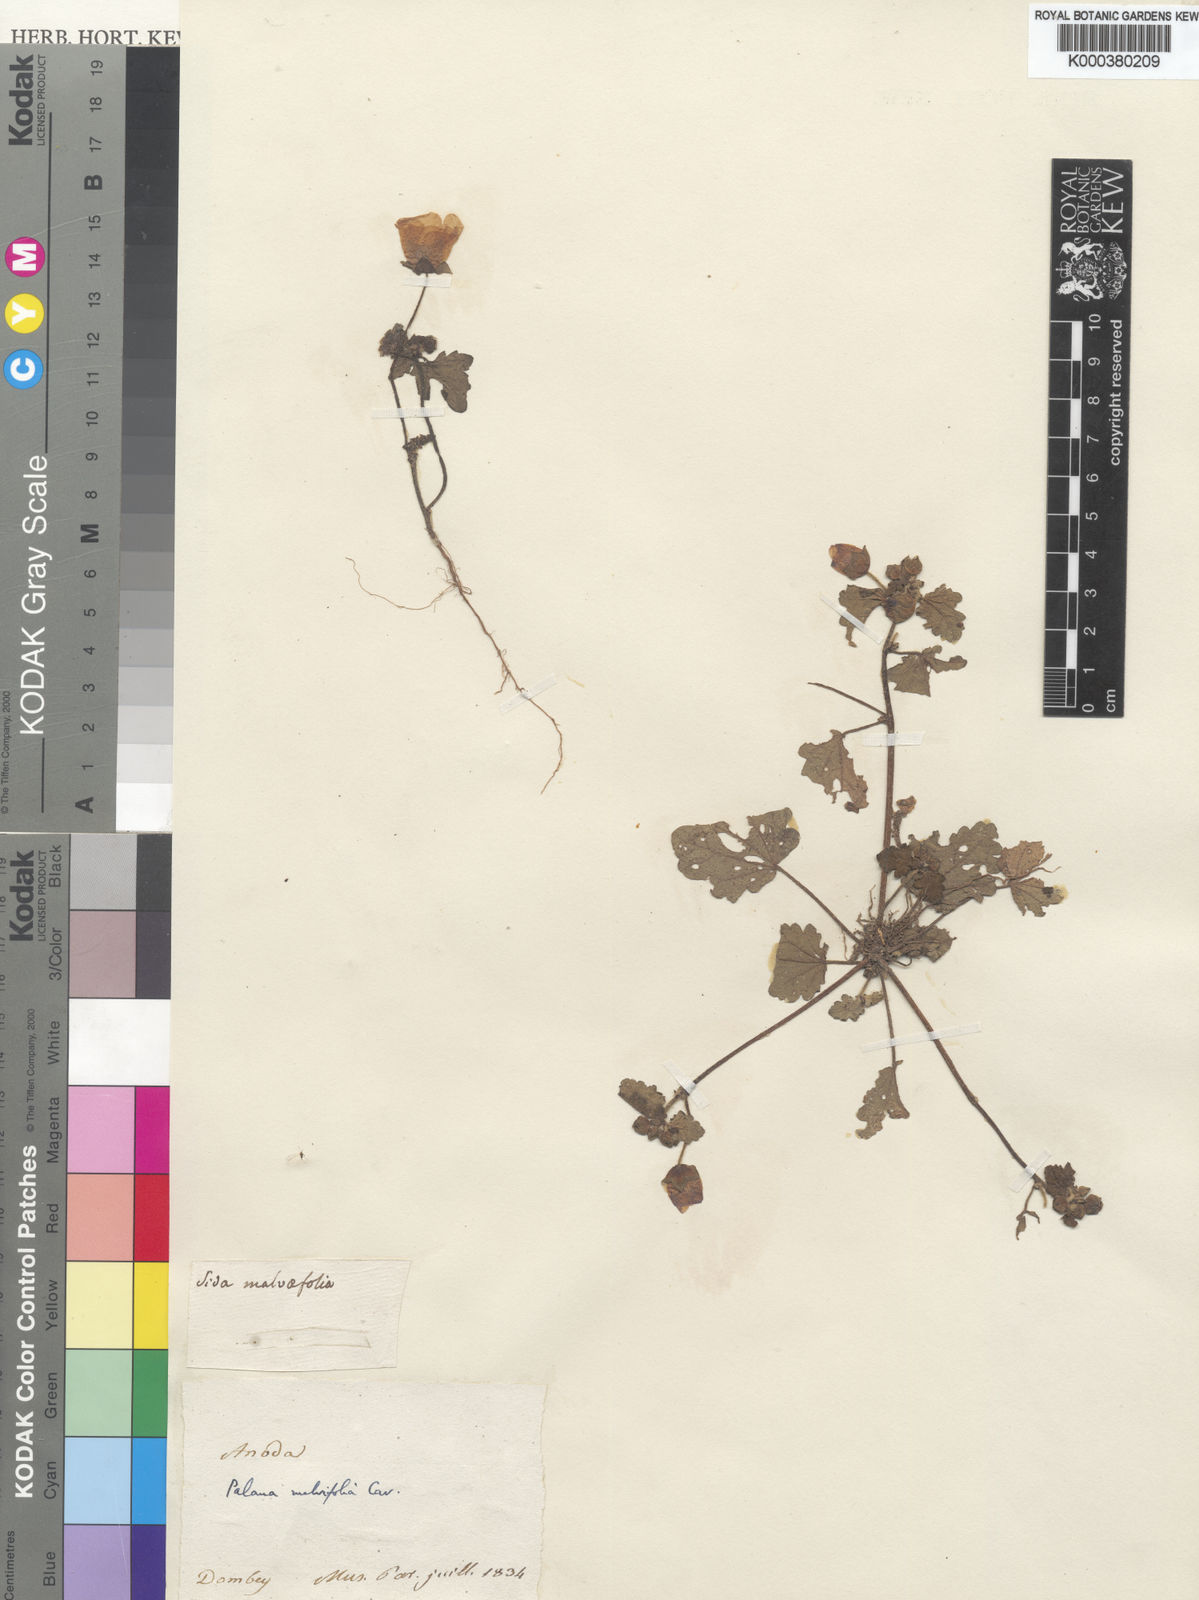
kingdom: Plantae
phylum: Tracheophyta
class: Magnoliopsida
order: Malvales
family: Malvaceae
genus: Palaua
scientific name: Palaua malvifolia
